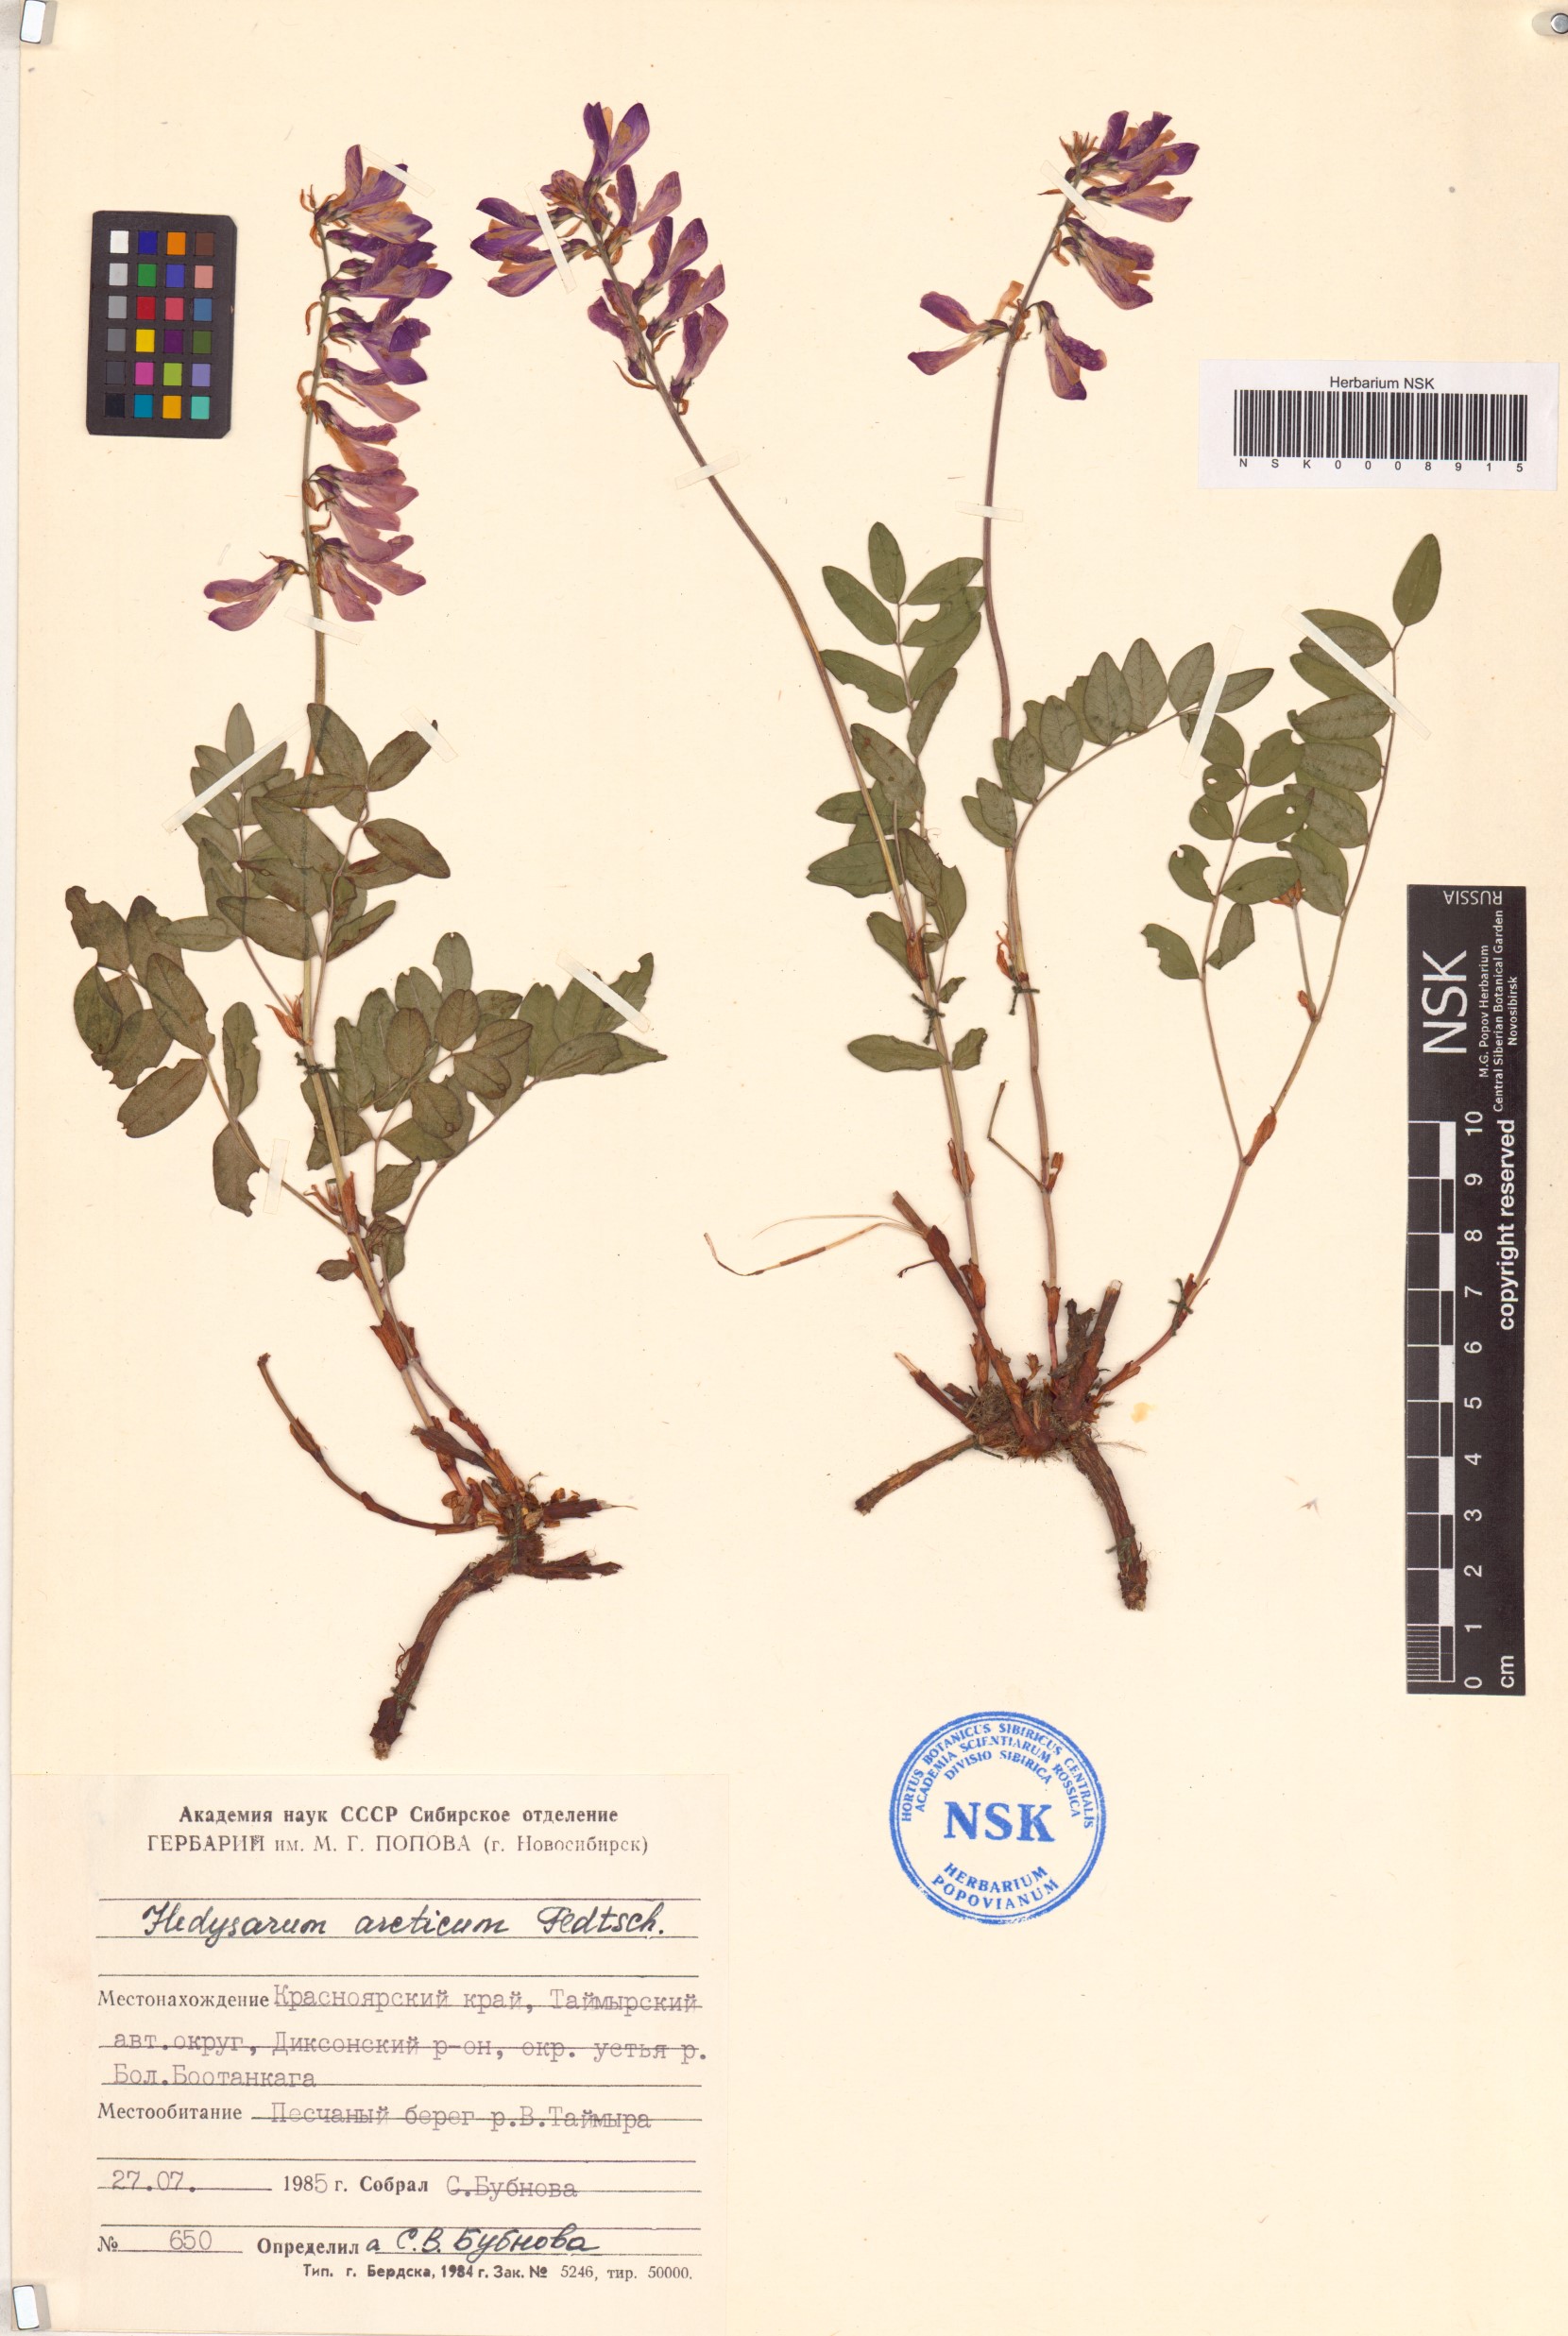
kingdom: Plantae
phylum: Tracheophyta
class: Magnoliopsida
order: Fabales
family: Fabaceae
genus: Hedysarum
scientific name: Hedysarum hedysaroides
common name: Alpine french-honeysuckle
